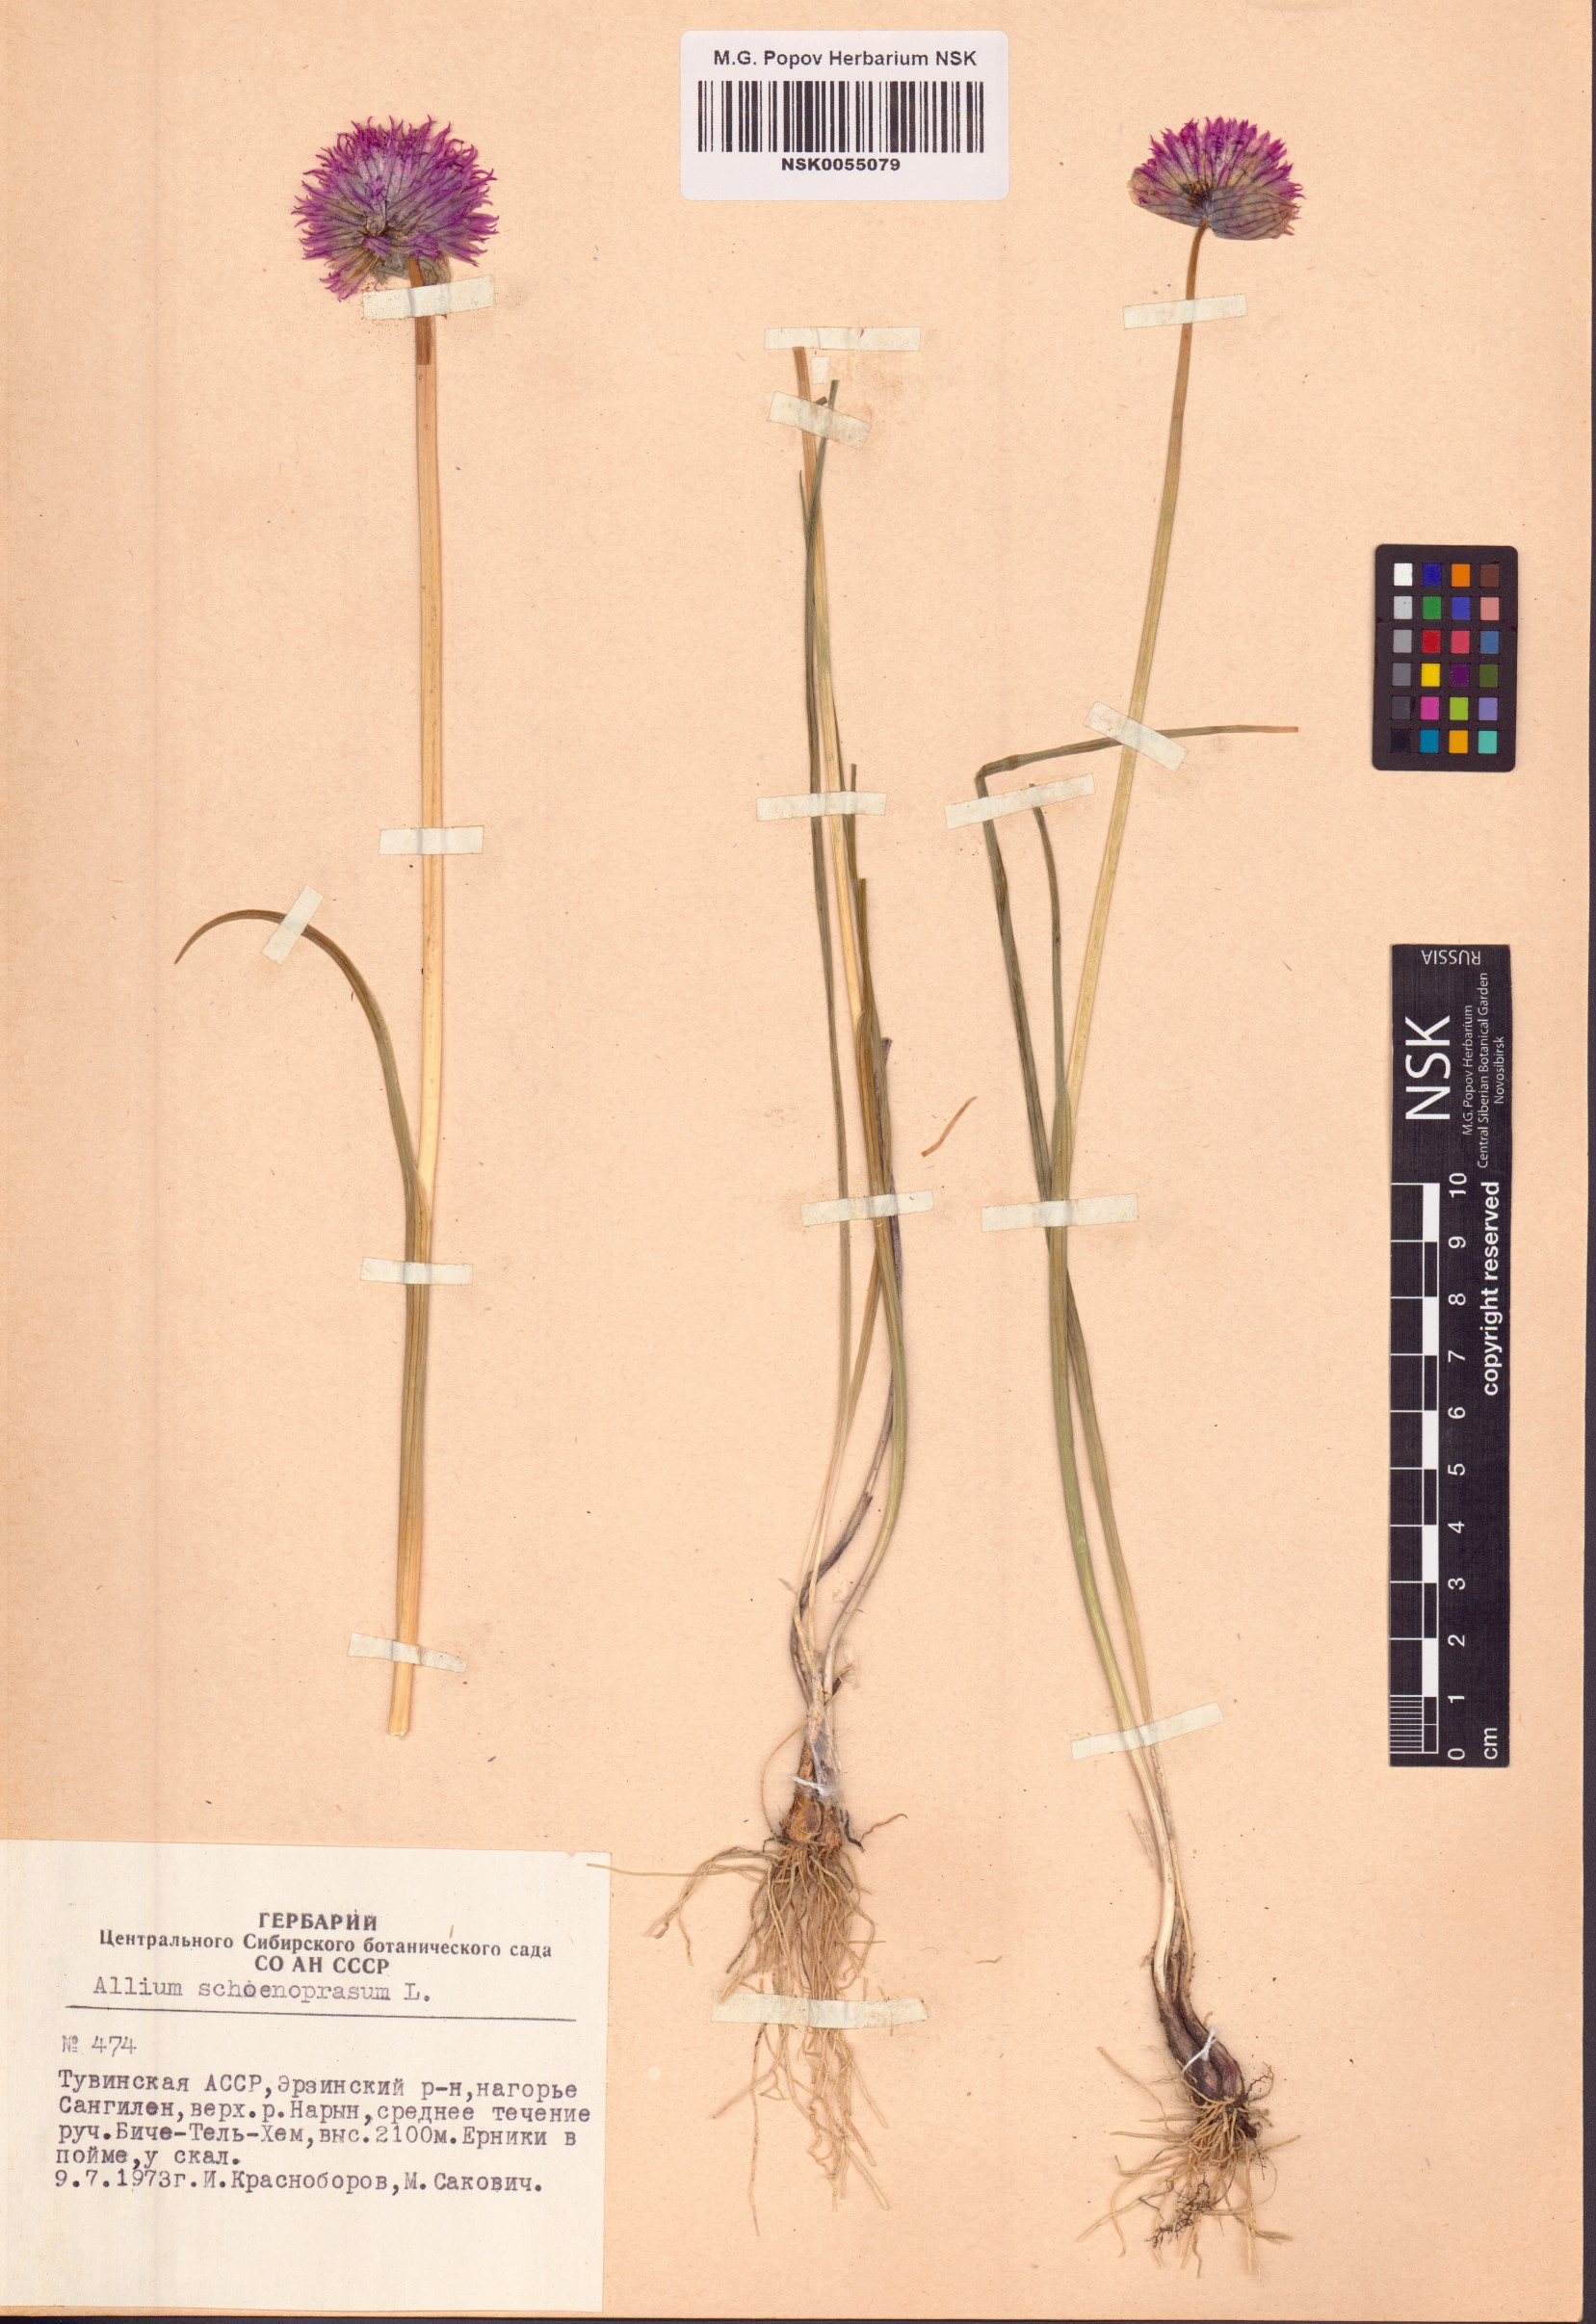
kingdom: Plantae
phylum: Tracheophyta
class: Liliopsida
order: Asparagales
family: Amaryllidaceae
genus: Allium
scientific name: Allium schoenoprasum
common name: Chives
